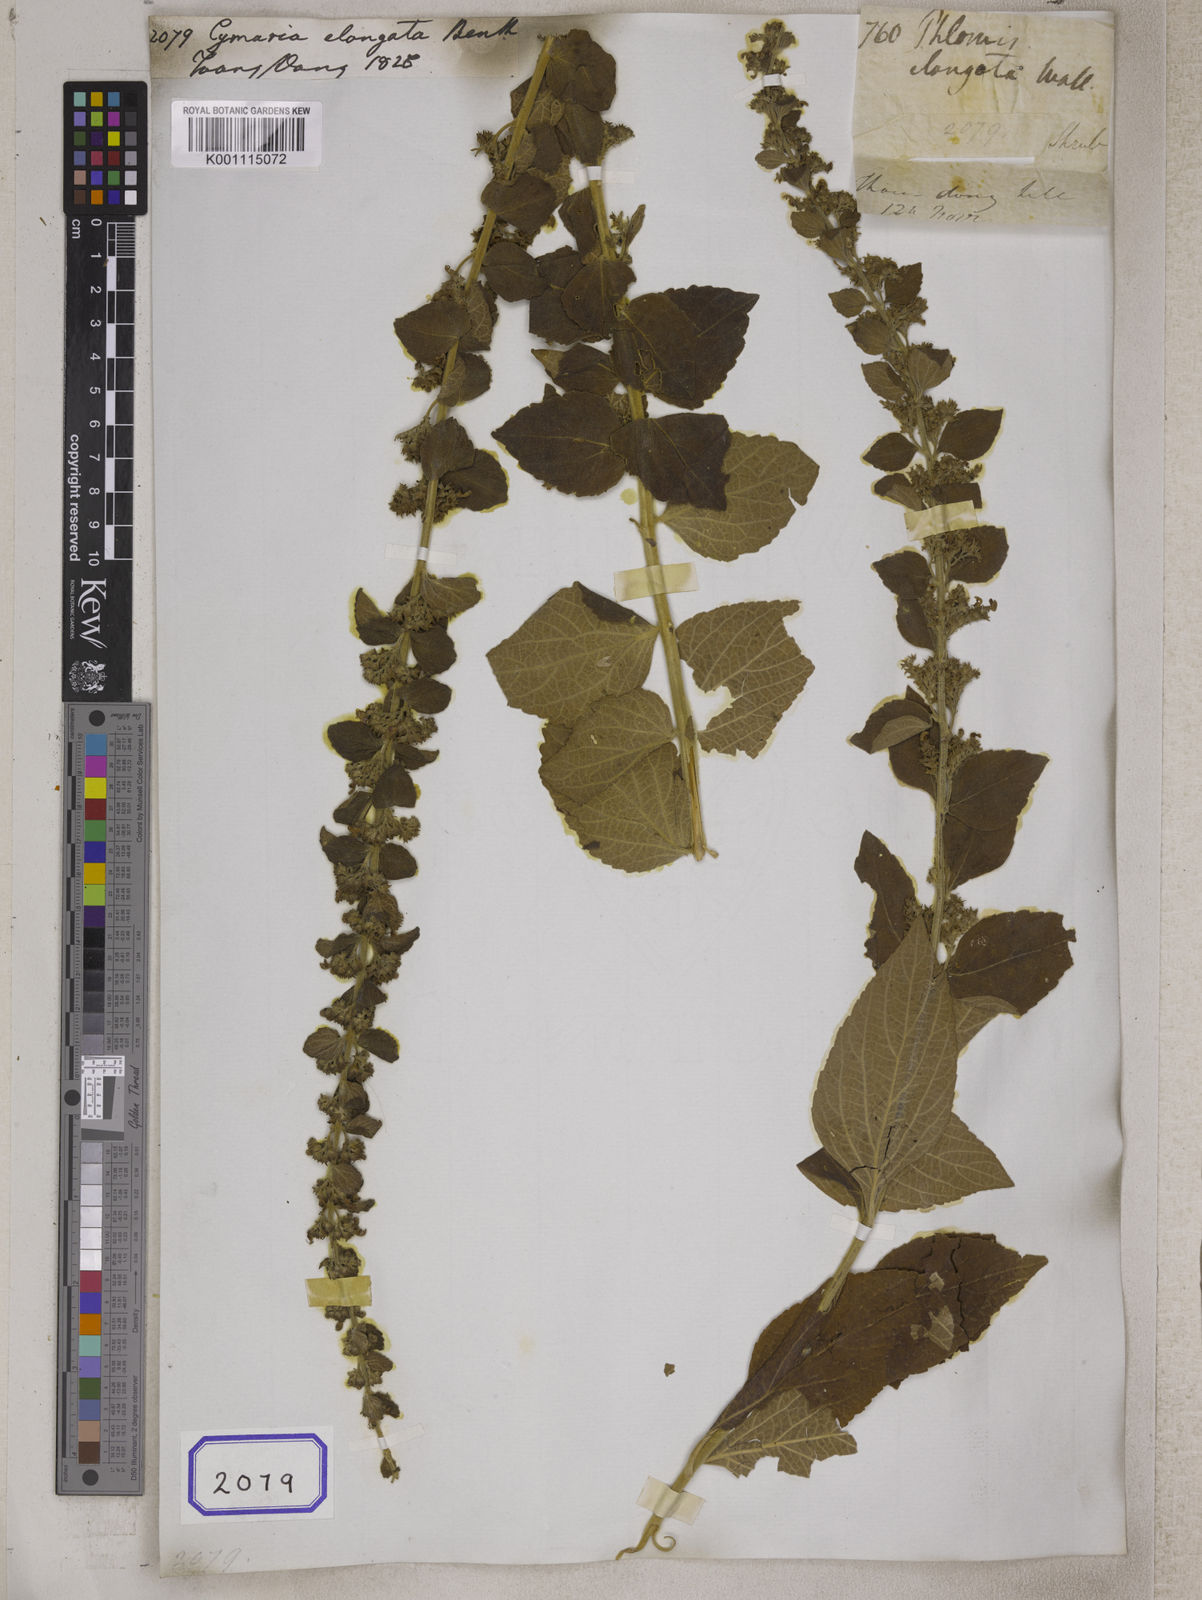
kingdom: Plantae
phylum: Tracheophyta
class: Magnoliopsida
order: Lamiales
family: Lamiaceae
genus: Cymaria
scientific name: Cymaria elongata
